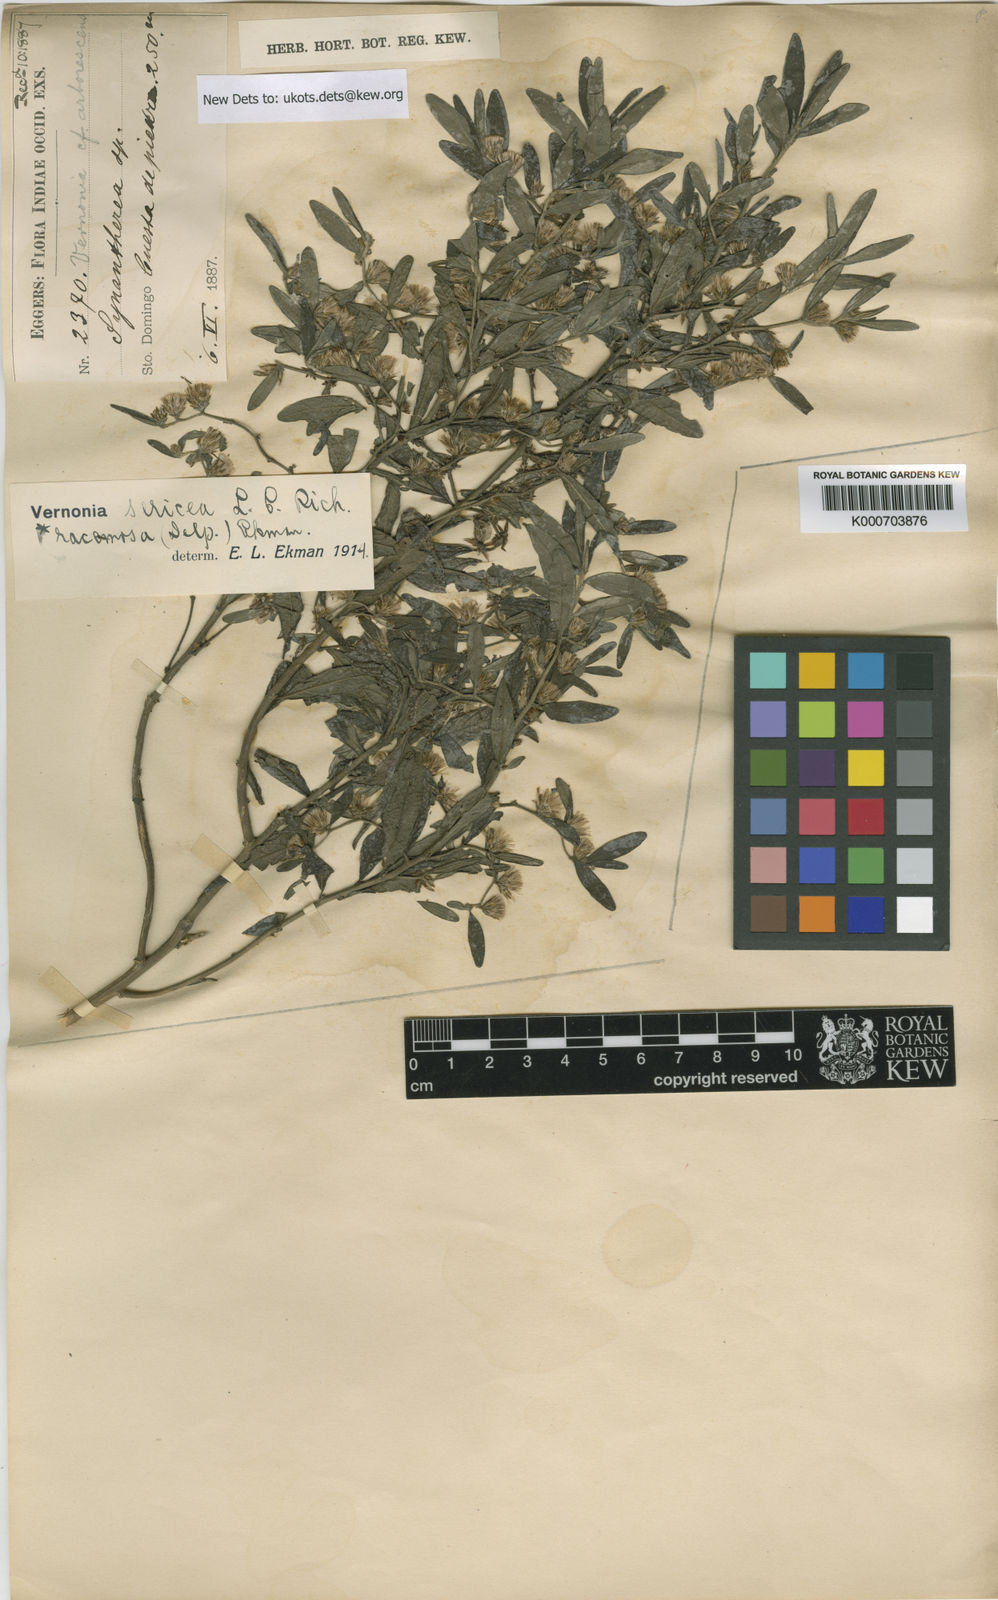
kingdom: Plantae
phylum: Tracheophyta
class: Magnoliopsida
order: Asterales
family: Asteraceae
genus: Lepidaploa
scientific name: Lepidaploa sericea
